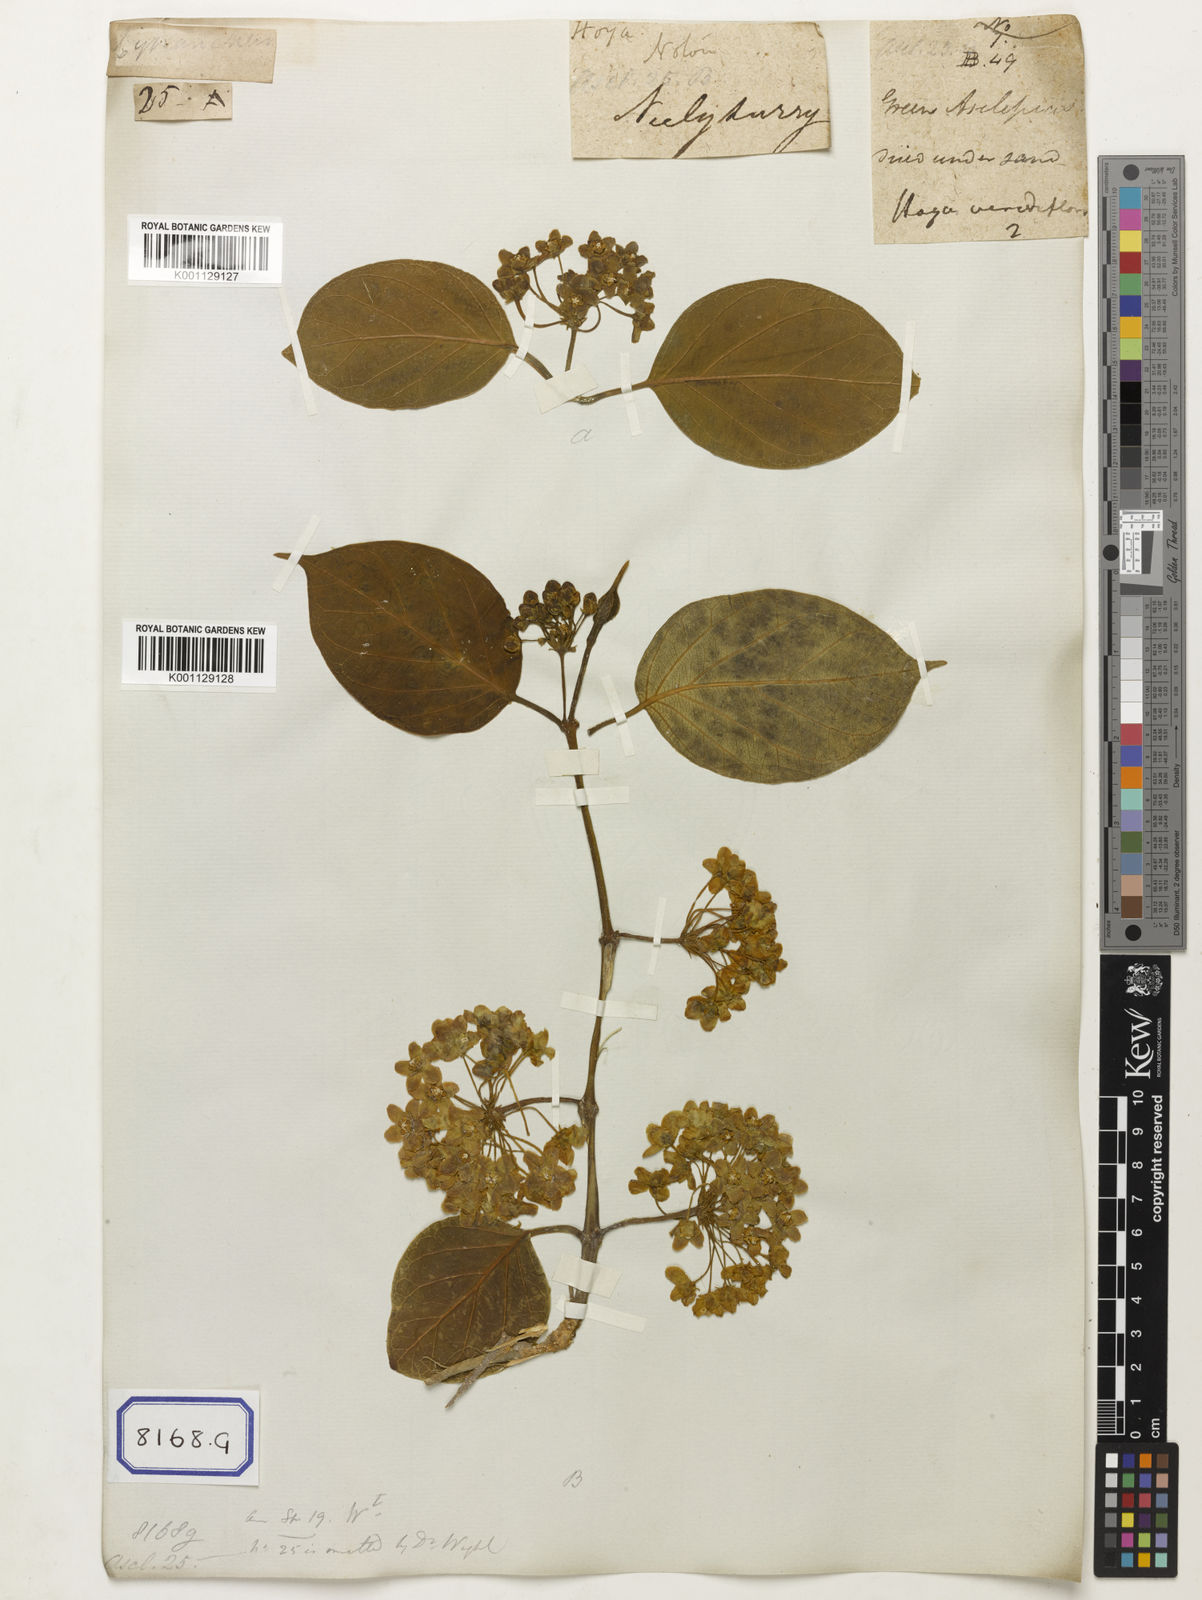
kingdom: Plantae
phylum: Tracheophyta
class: Magnoliopsida
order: Gentianales
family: Apocynaceae
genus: Stephanotis
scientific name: Stephanotis volubilis
